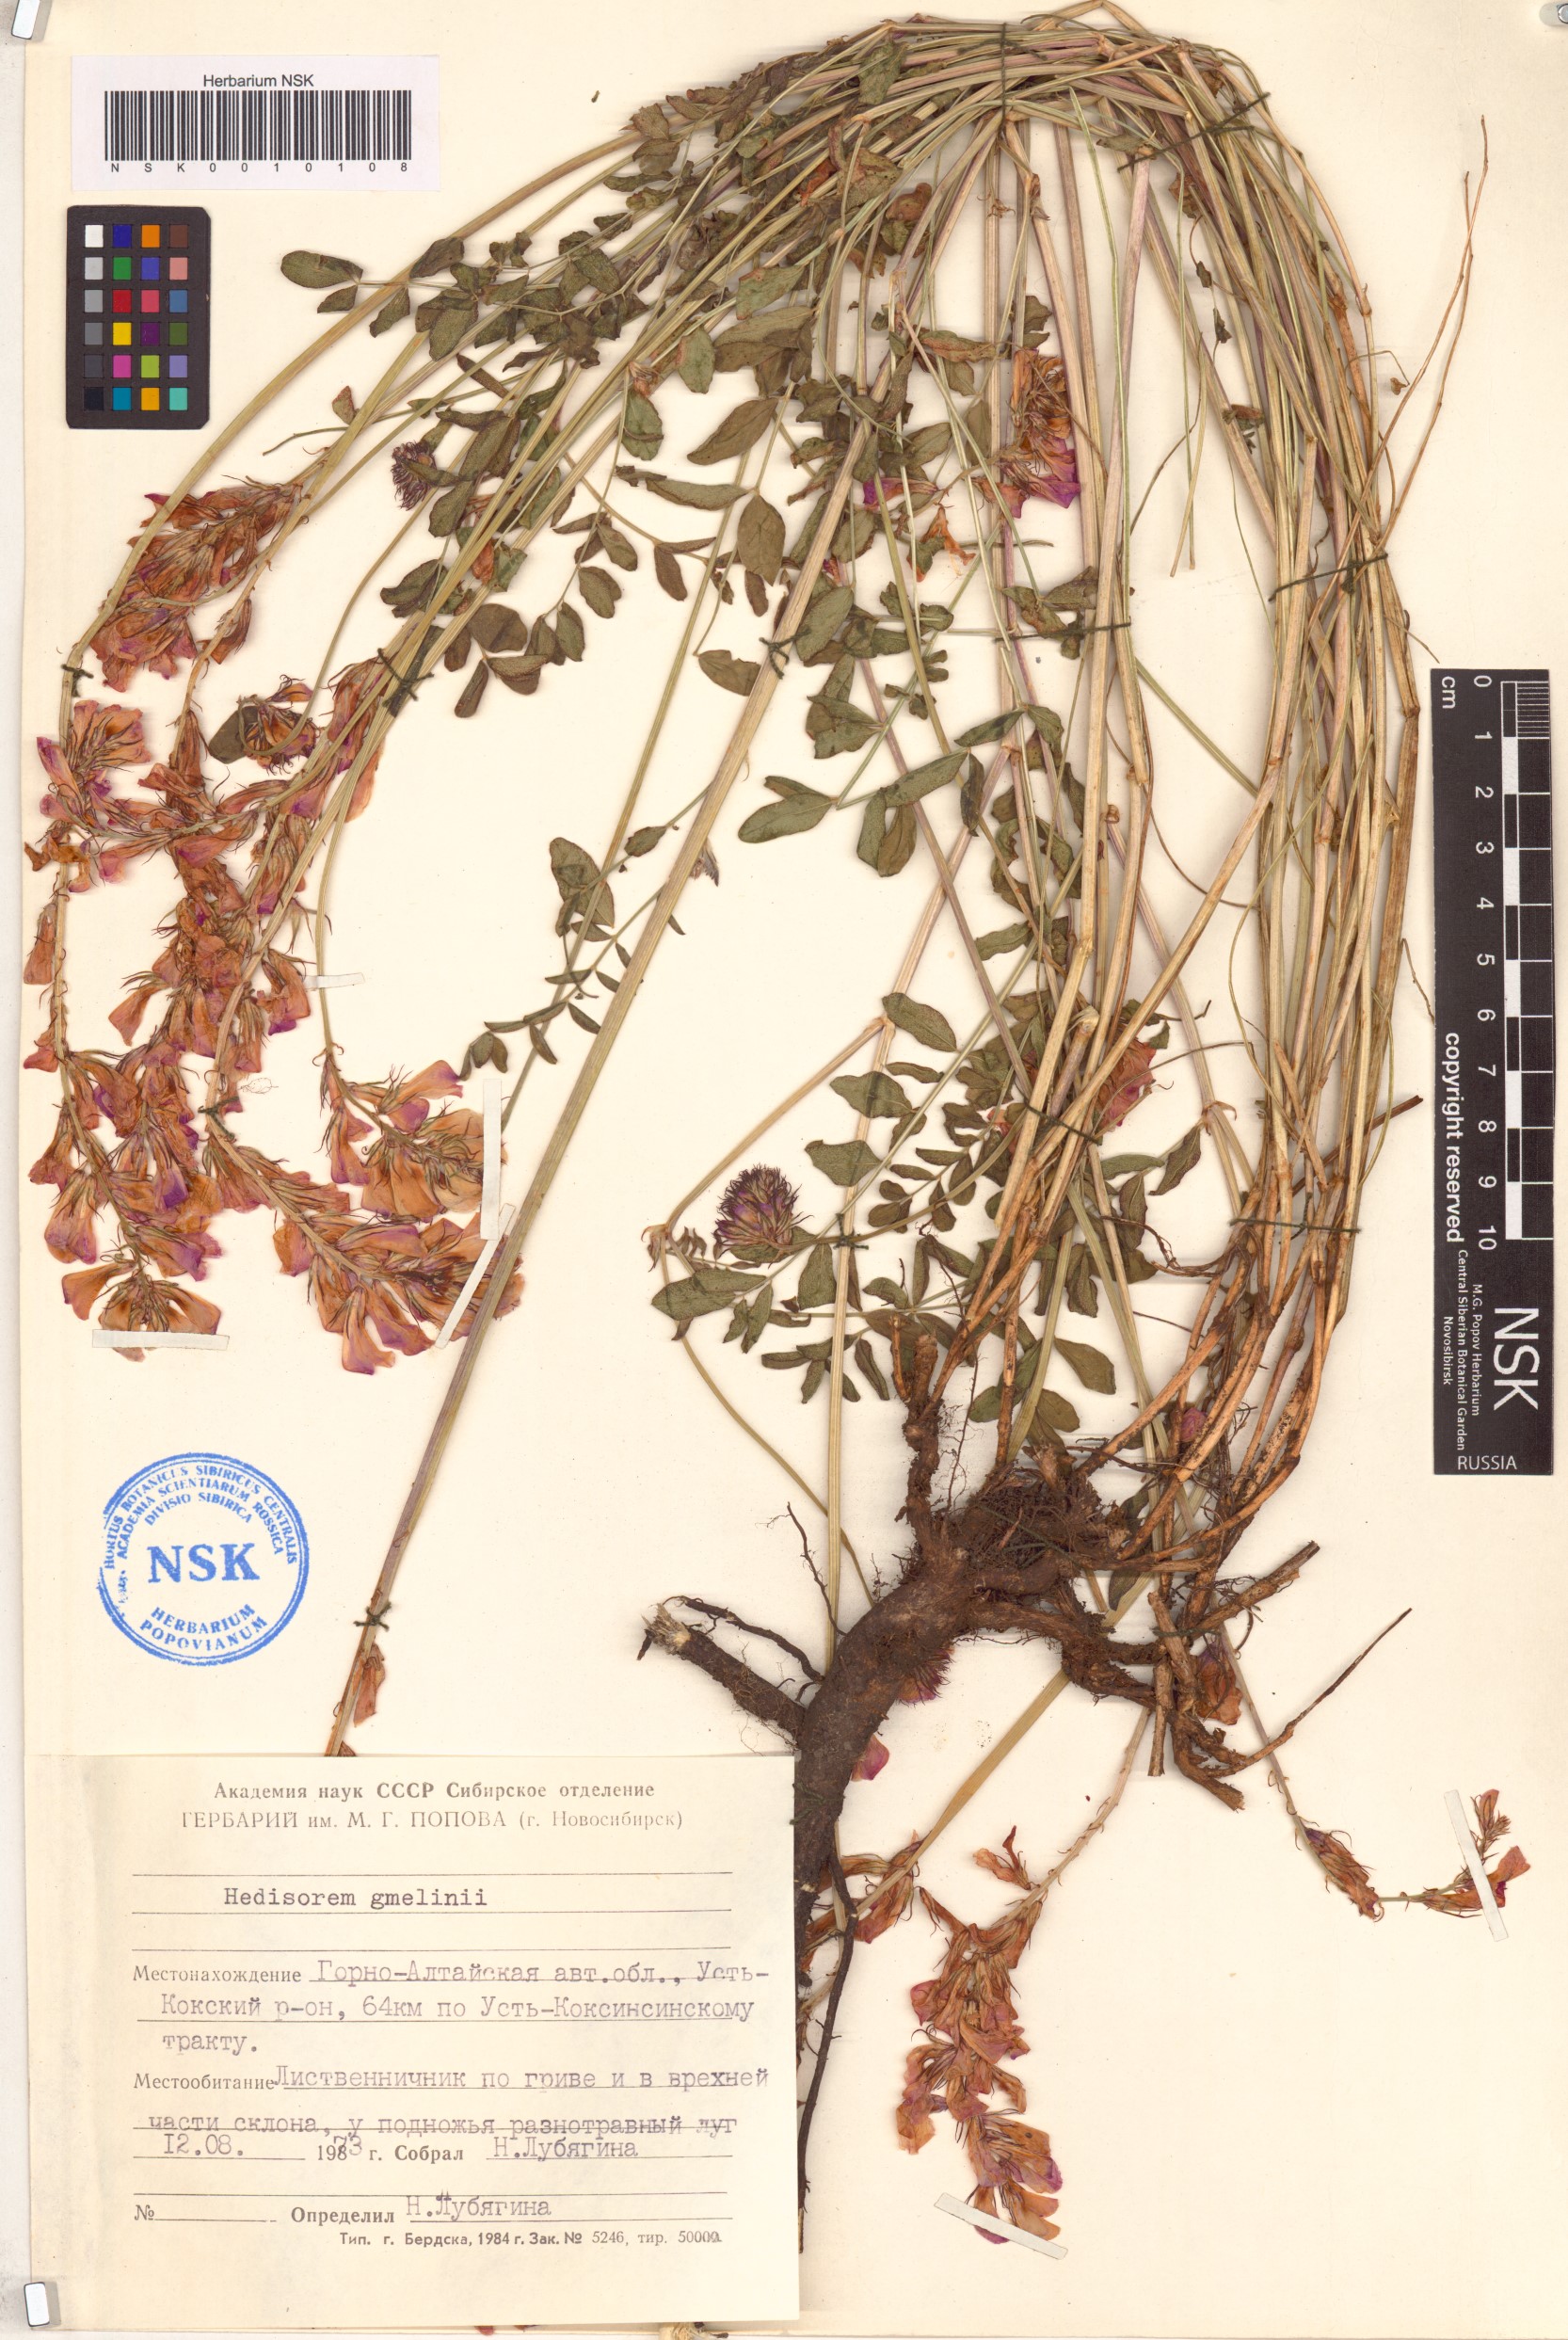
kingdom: Plantae
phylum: Tracheophyta
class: Magnoliopsida
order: Fabales
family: Fabaceae
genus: Hedysarum
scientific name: Hedysarum gmelinii
